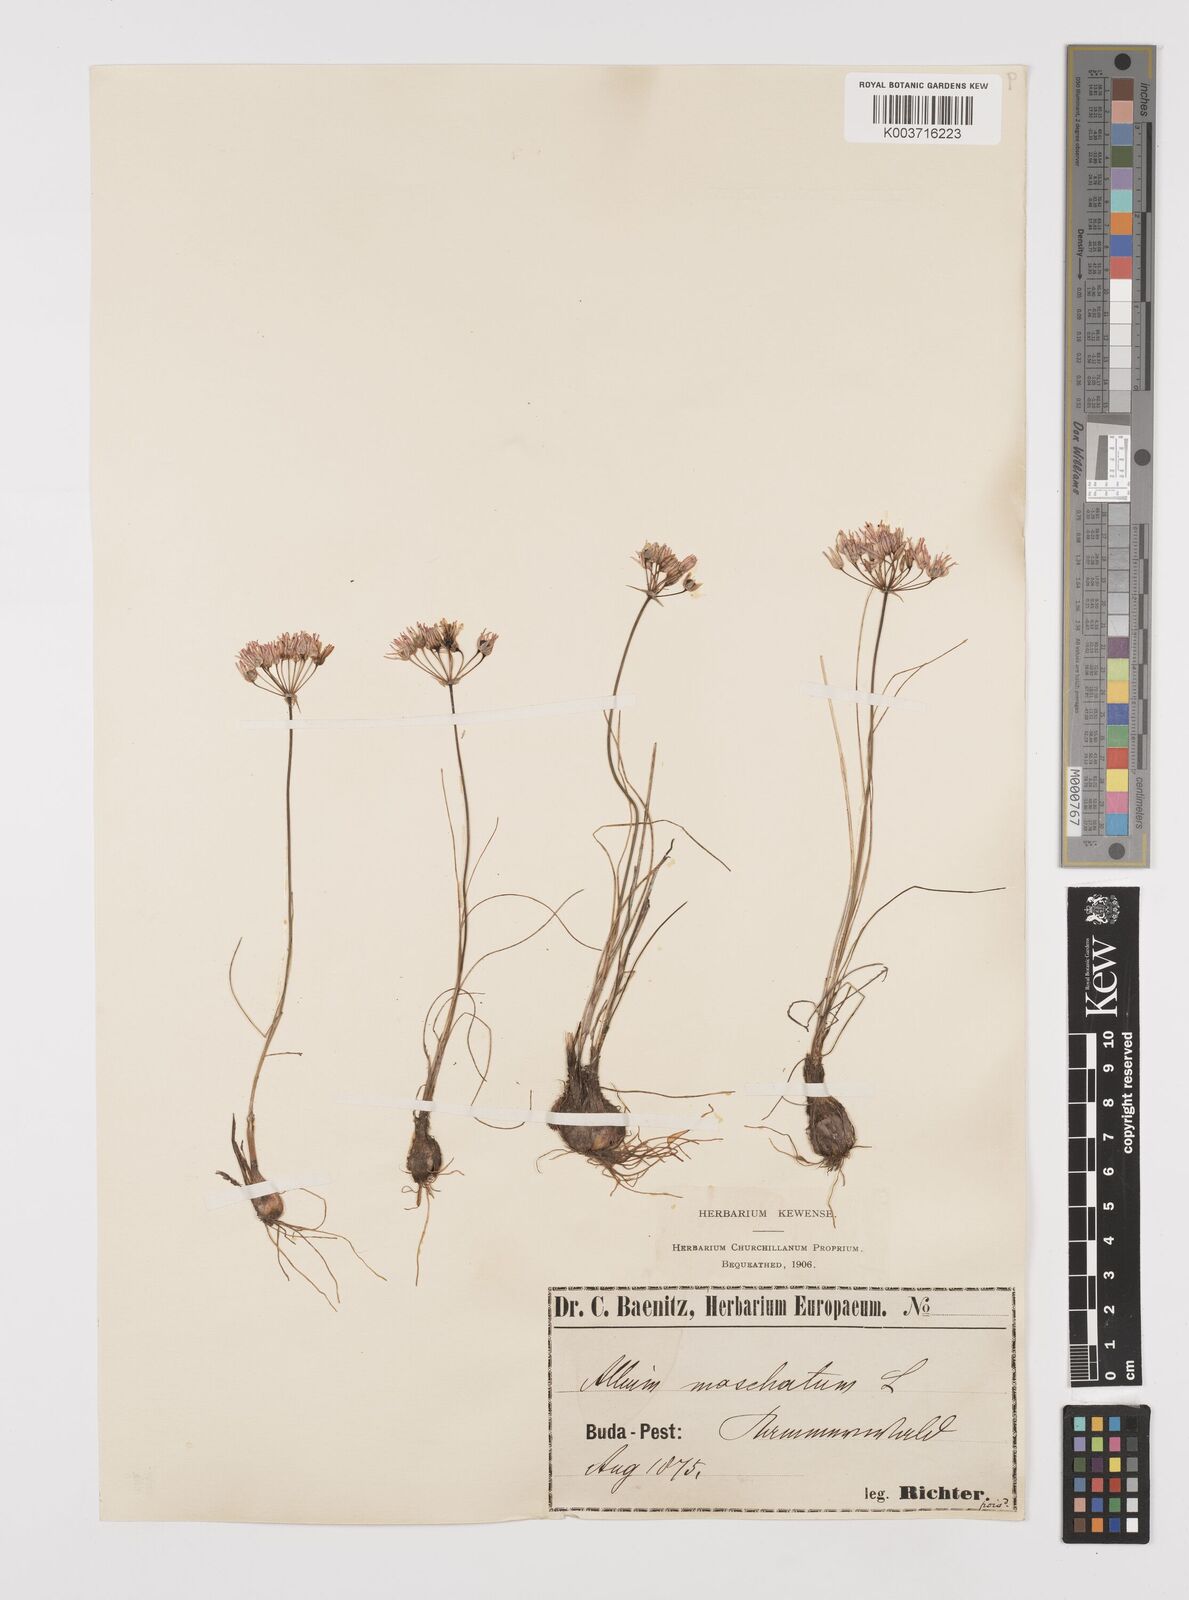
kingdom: Plantae
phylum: Tracheophyta
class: Liliopsida
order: Asparagales
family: Amaryllidaceae
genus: Allium
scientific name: Allium moschatum
